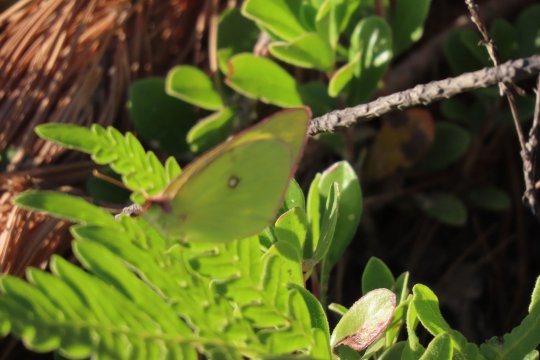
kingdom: Animalia
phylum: Arthropoda
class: Insecta
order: Lepidoptera
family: Pieridae
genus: Colias
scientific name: Colias interior
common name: Pink-edged Sulphur
